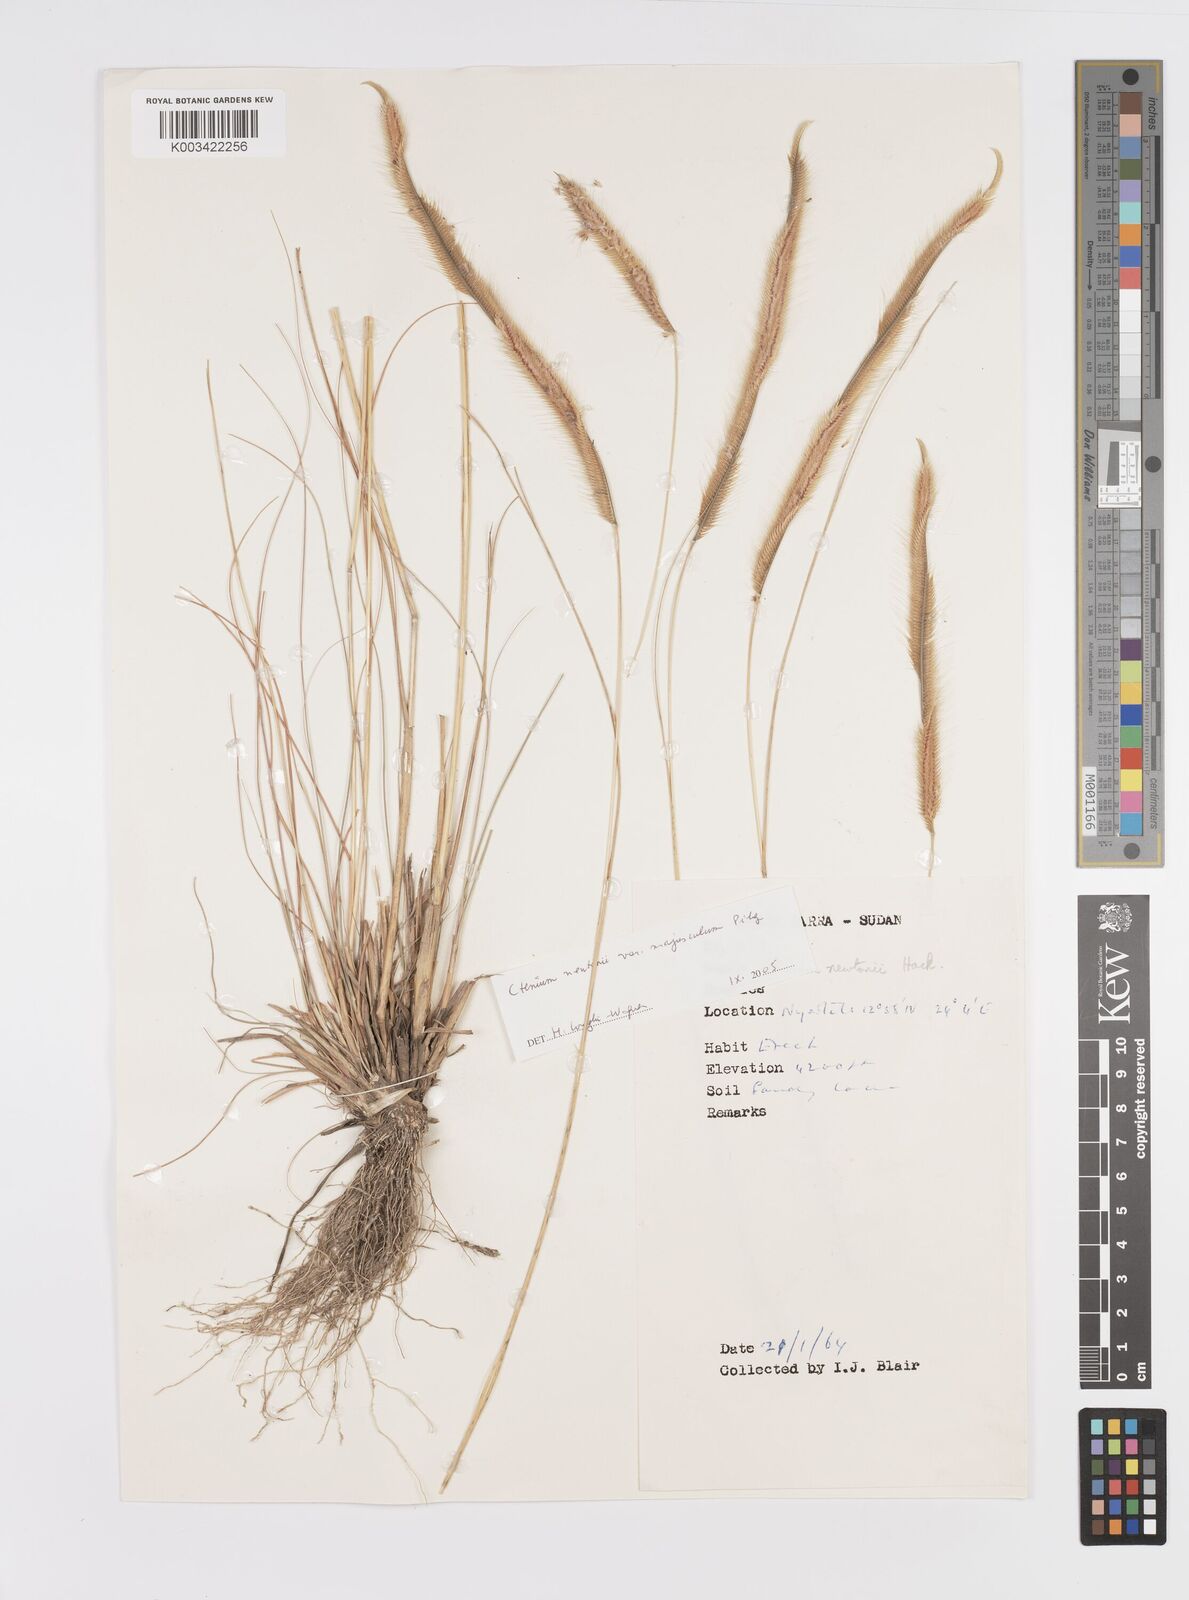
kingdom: Plantae
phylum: Tracheophyta
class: Liliopsida
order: Poales
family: Poaceae
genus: Ctenium
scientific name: Ctenium newtonii
